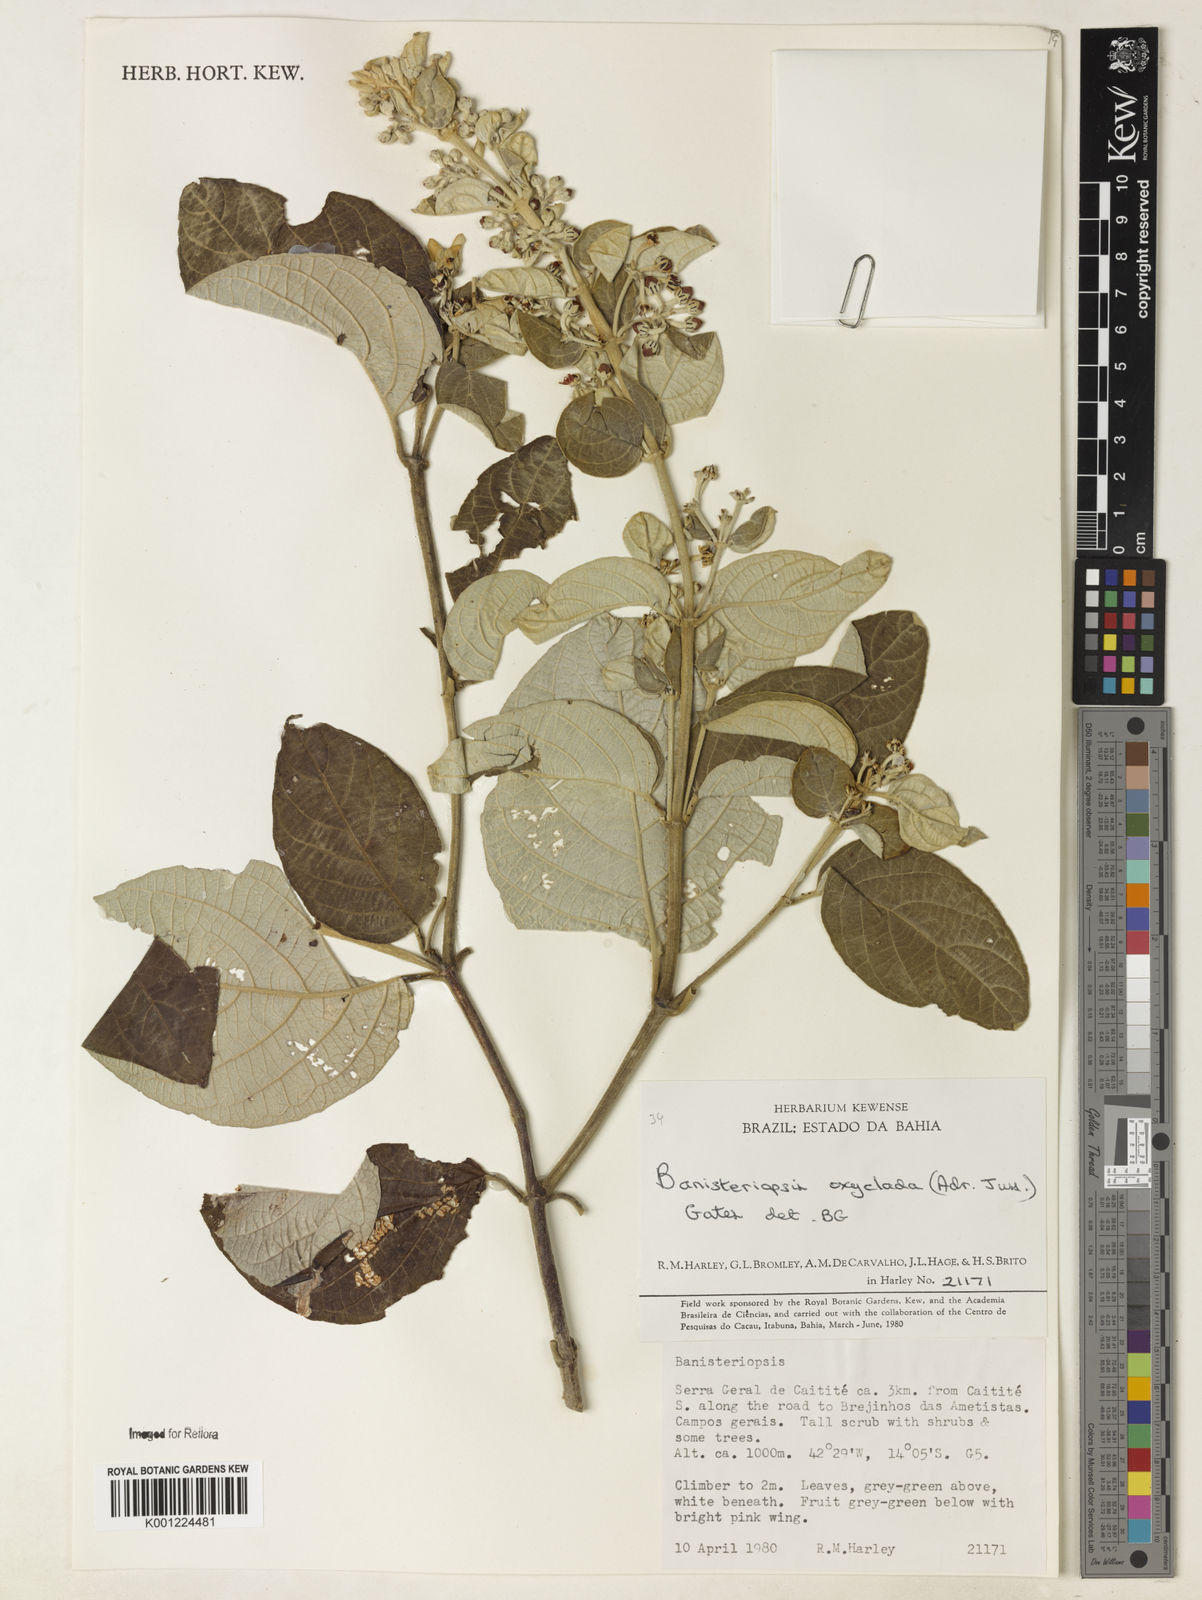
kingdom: Plantae
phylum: Tracheophyta
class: Magnoliopsida
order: Malpighiales
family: Malpighiaceae
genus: Banisteriopsis
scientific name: Banisteriopsis oxyclada
